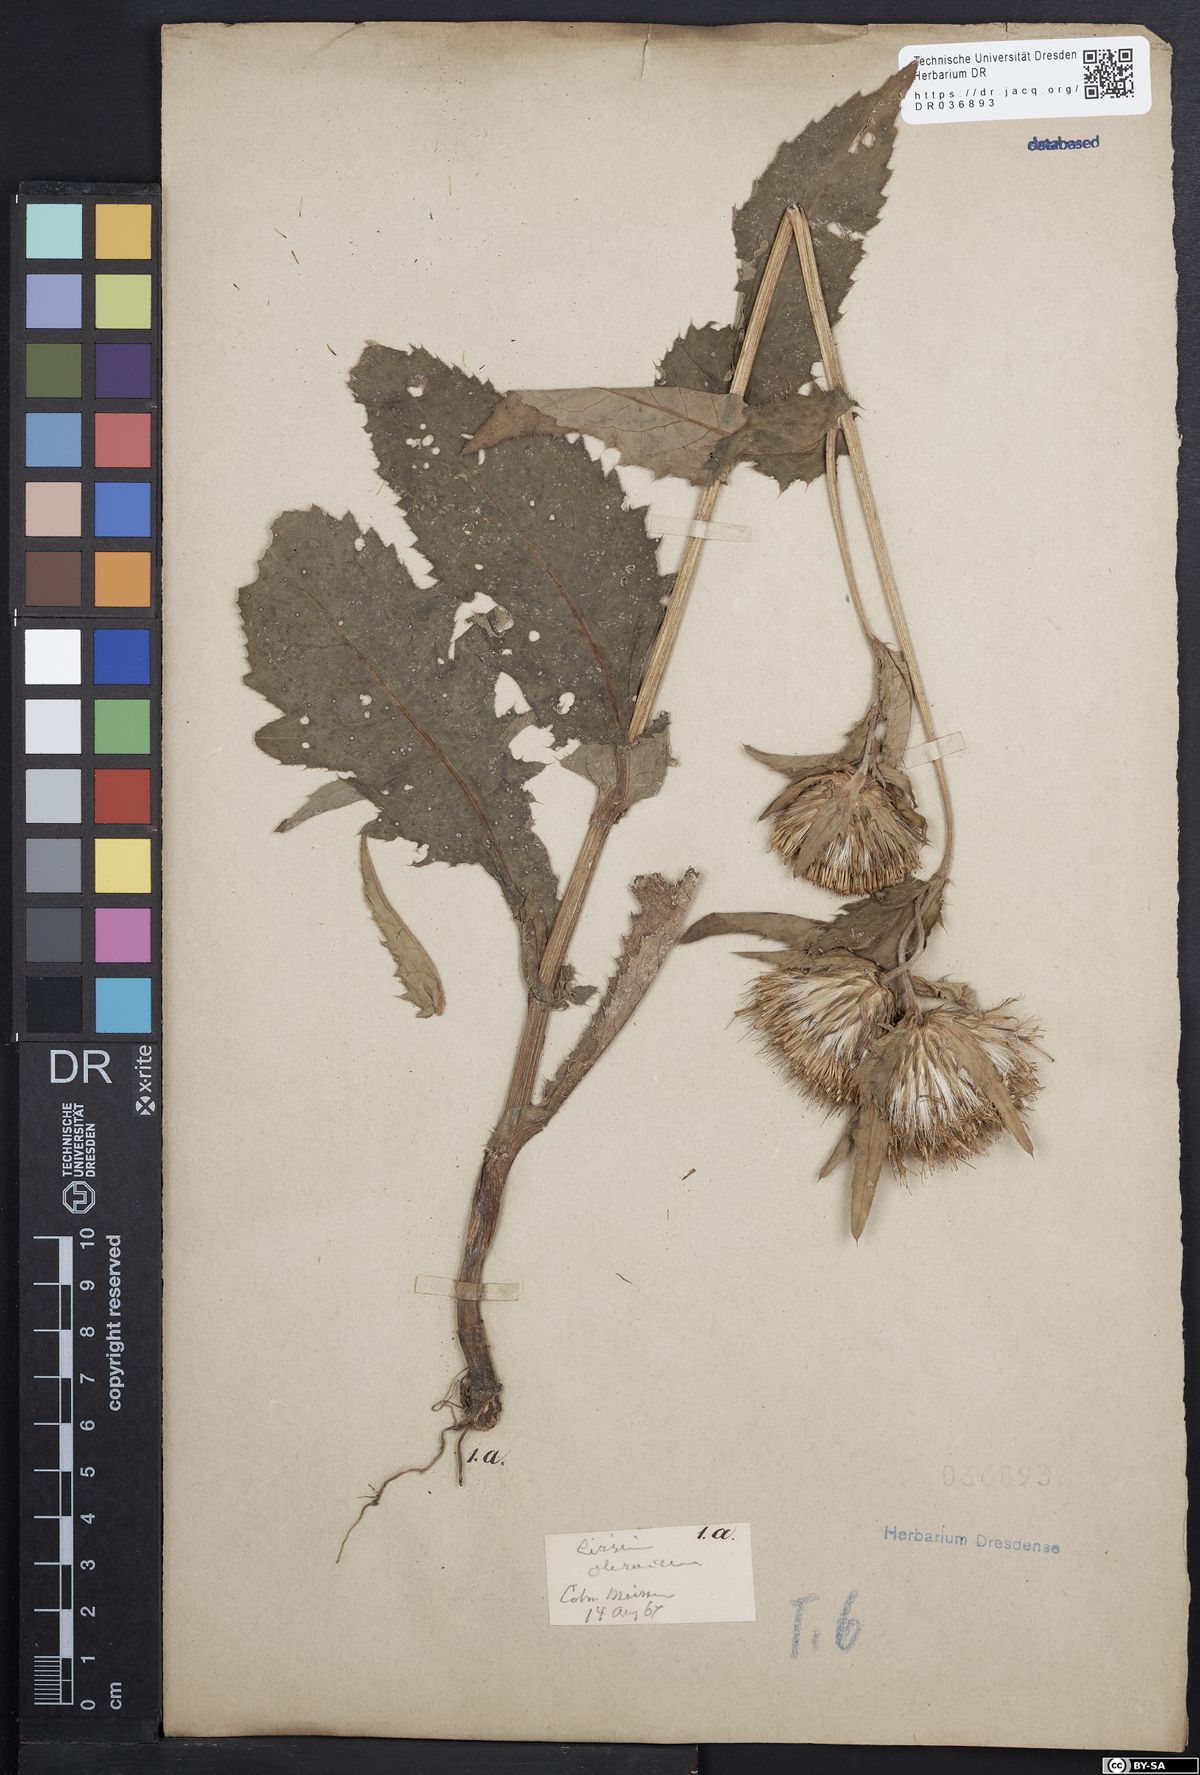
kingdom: Plantae
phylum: Tracheophyta
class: Magnoliopsida
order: Asterales
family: Asteraceae
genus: Cirsium
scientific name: Cirsium oleraceum
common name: Cabbage thistle
